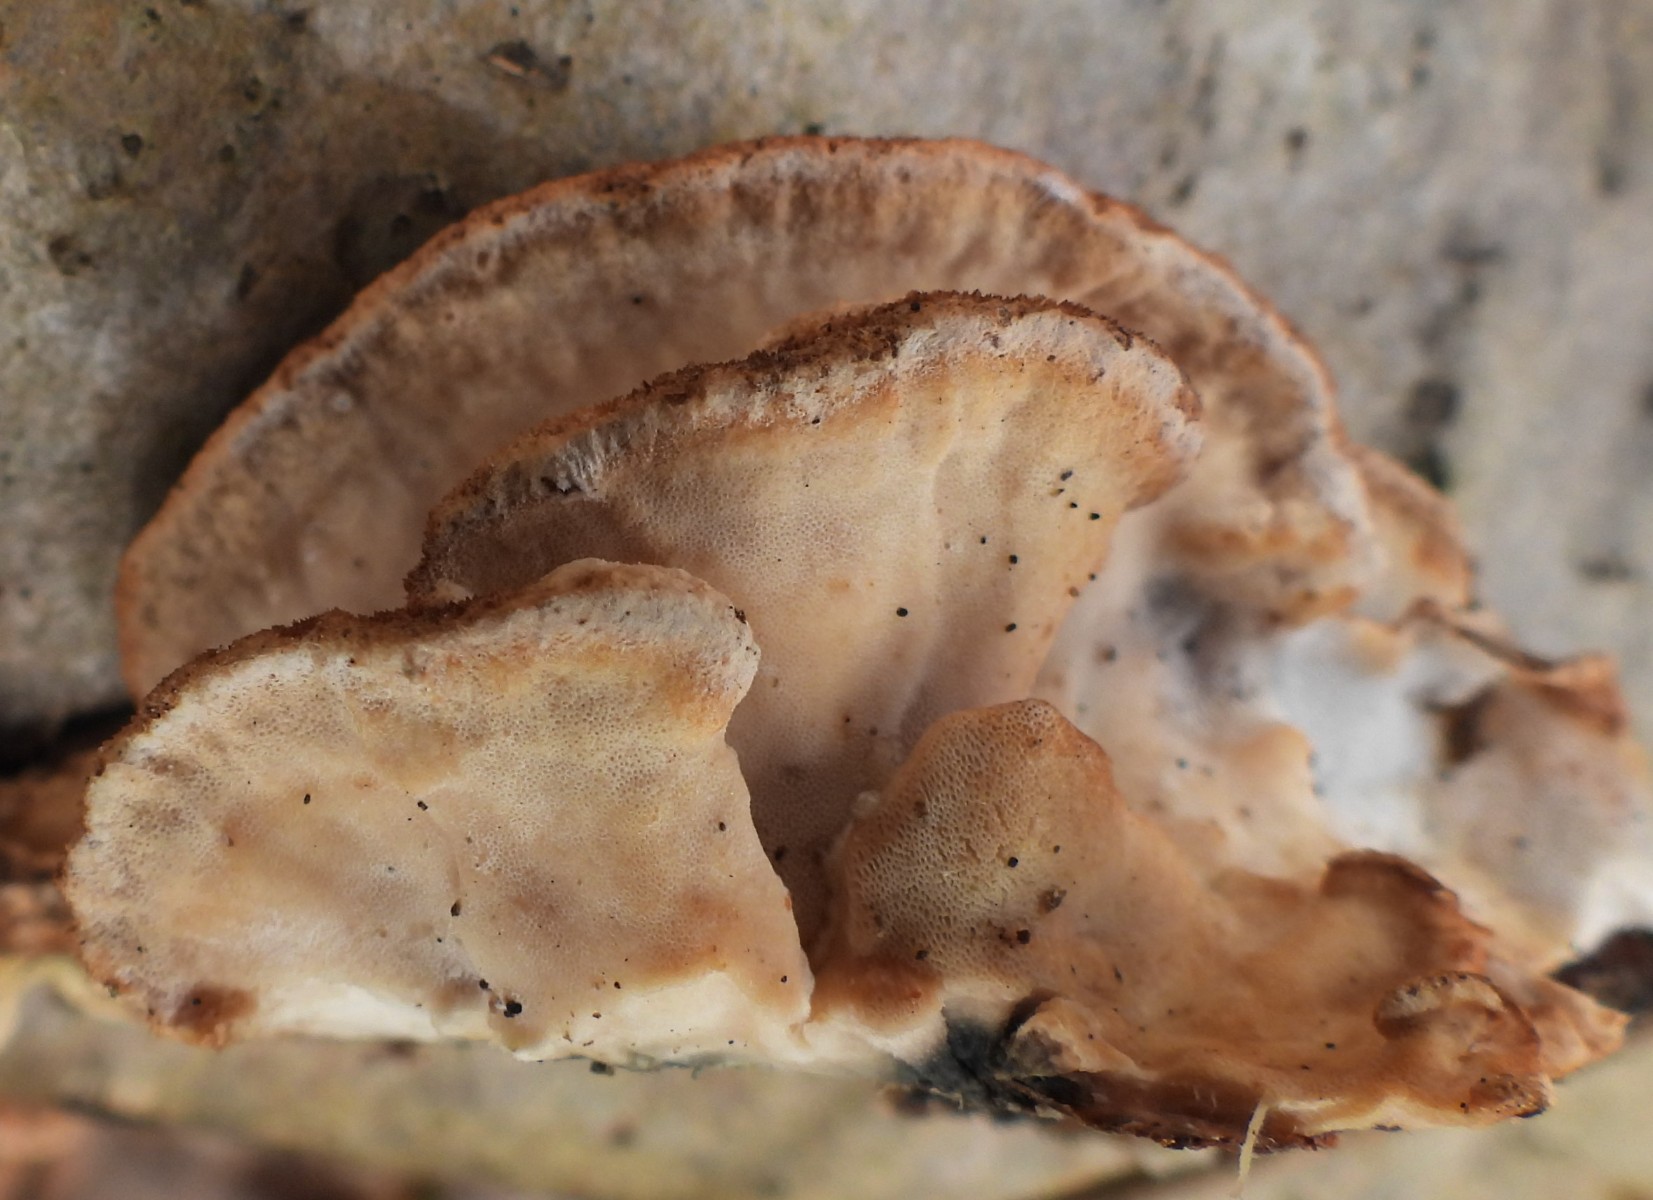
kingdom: Fungi
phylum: Basidiomycota
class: Agaricomycetes
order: Polyporales
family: Incrustoporiaceae
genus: Skeletocutis
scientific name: Skeletocutis nemoralis
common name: stor krystalporesvamp
